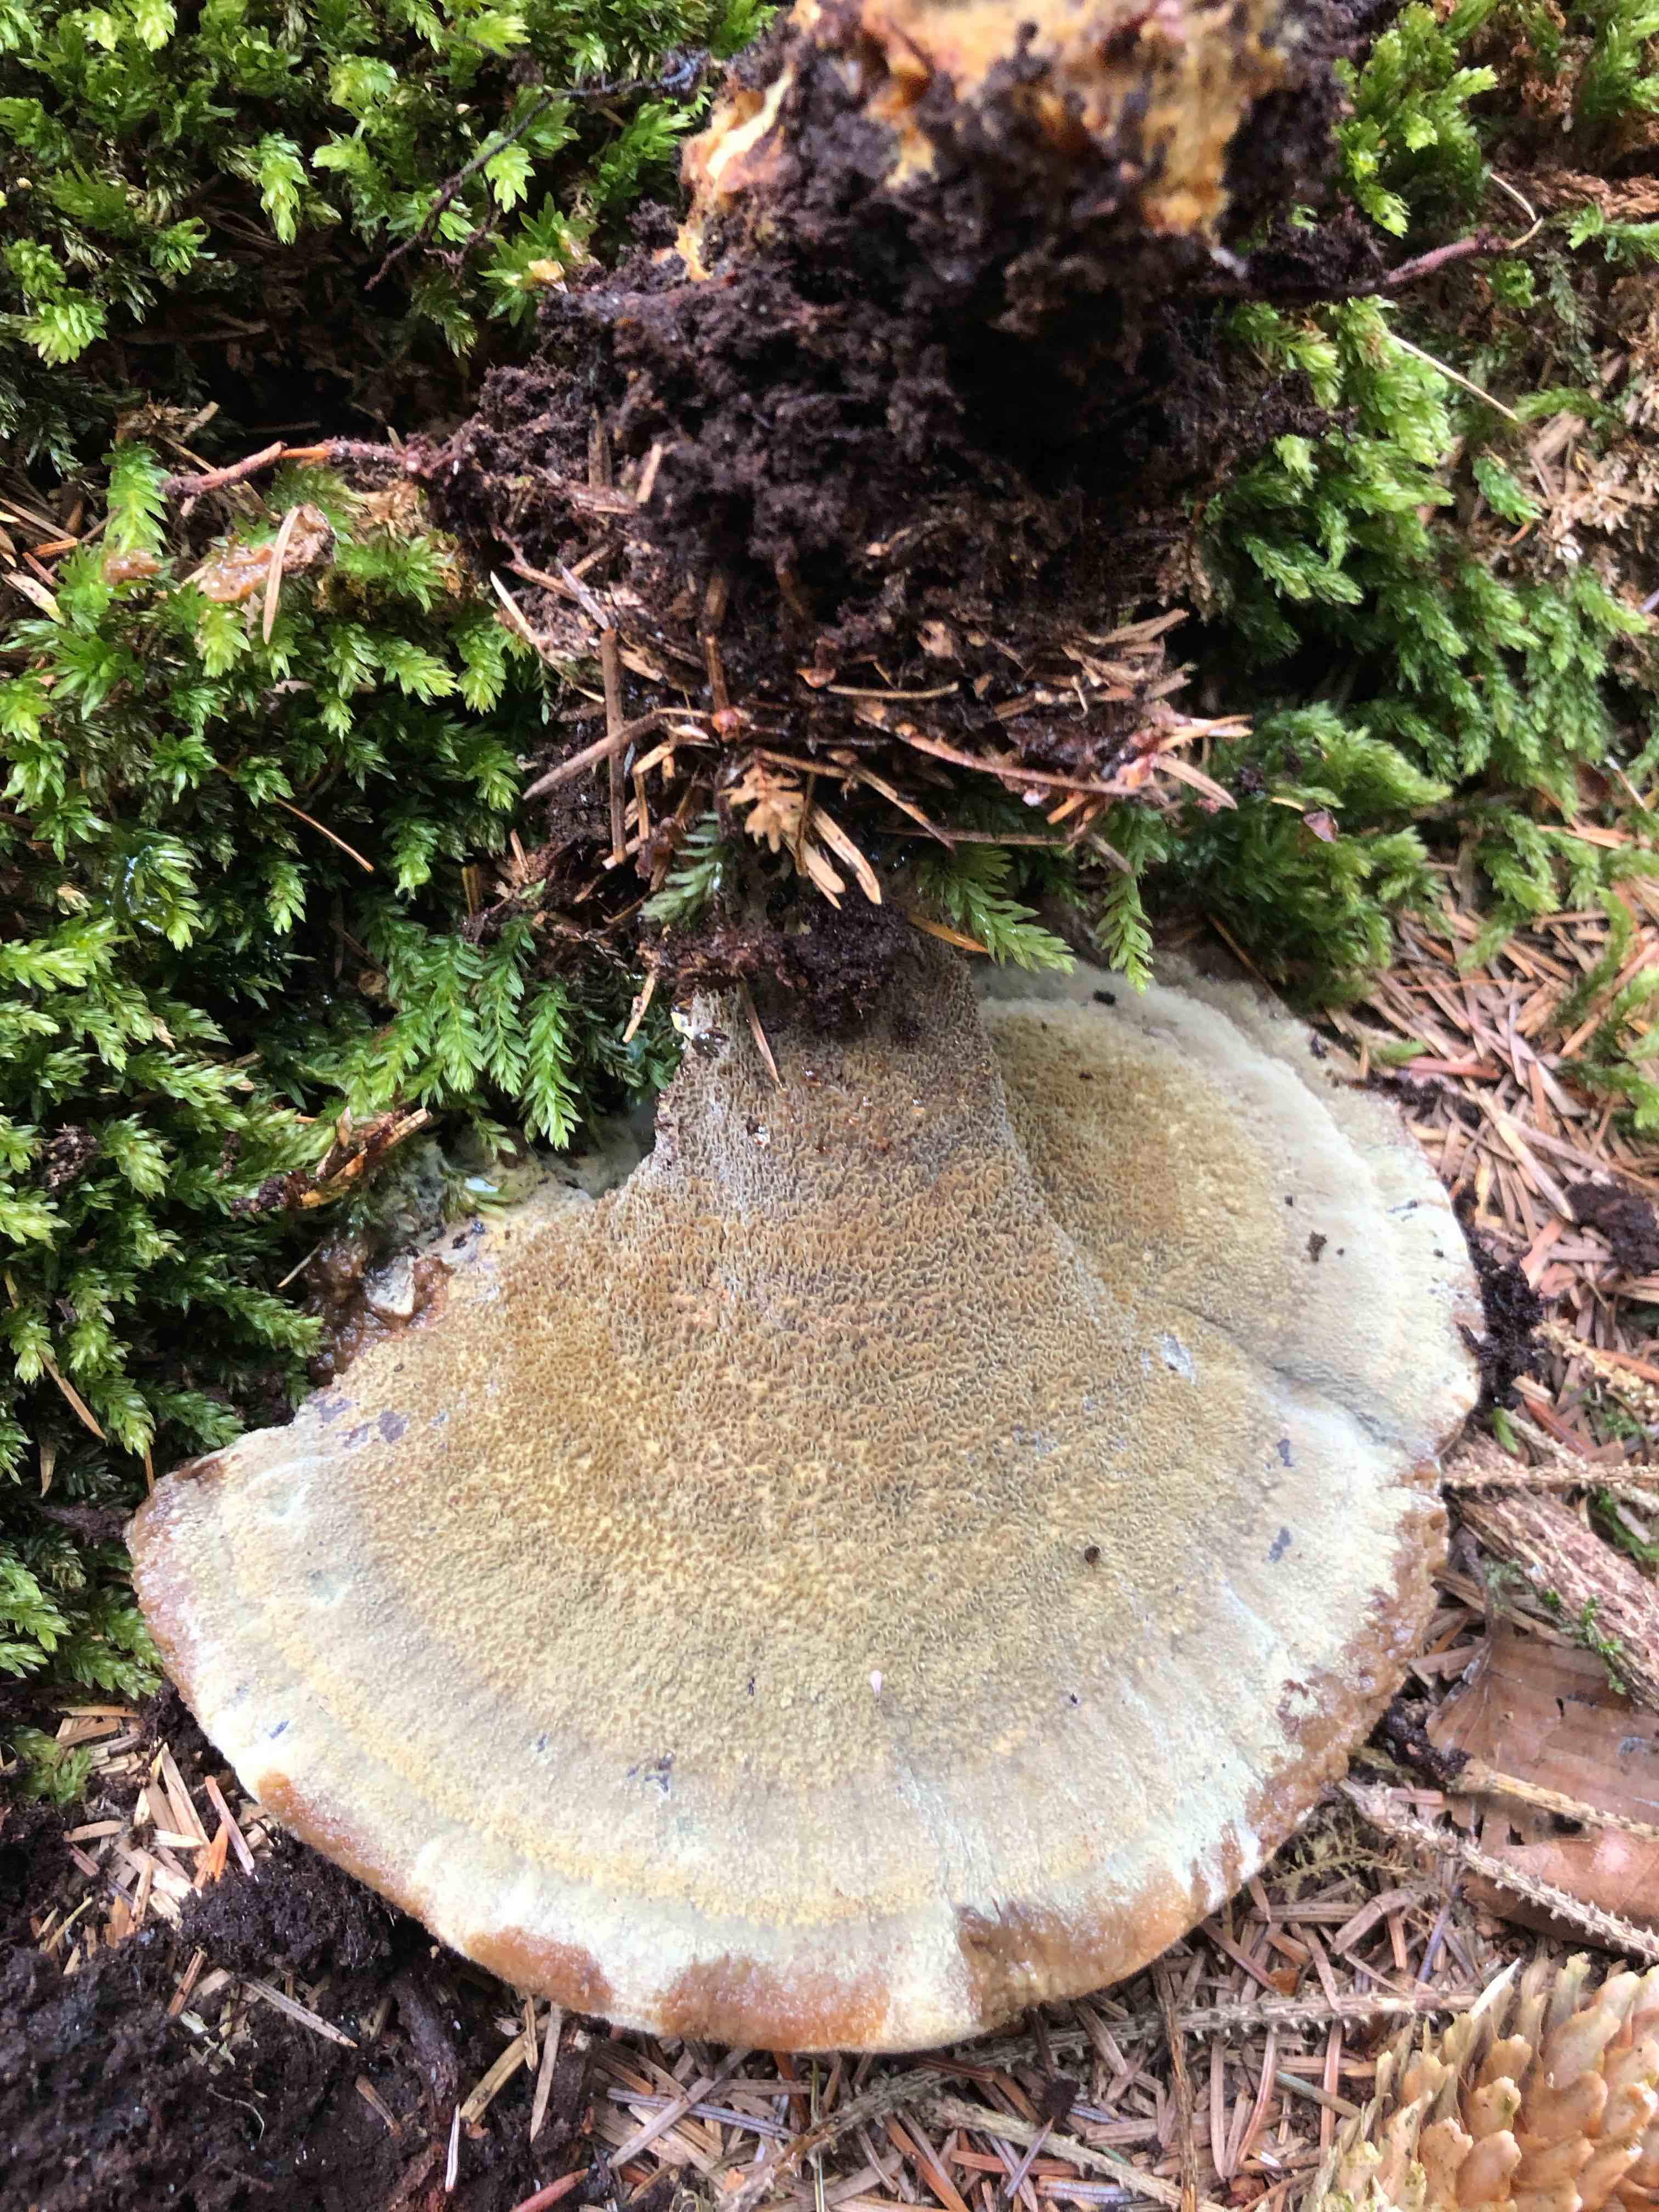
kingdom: Fungi
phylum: Basidiomycota
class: Agaricomycetes
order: Polyporales
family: Laetiporaceae
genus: Phaeolus
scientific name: Phaeolus schweinitzii
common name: brunporesvamp
